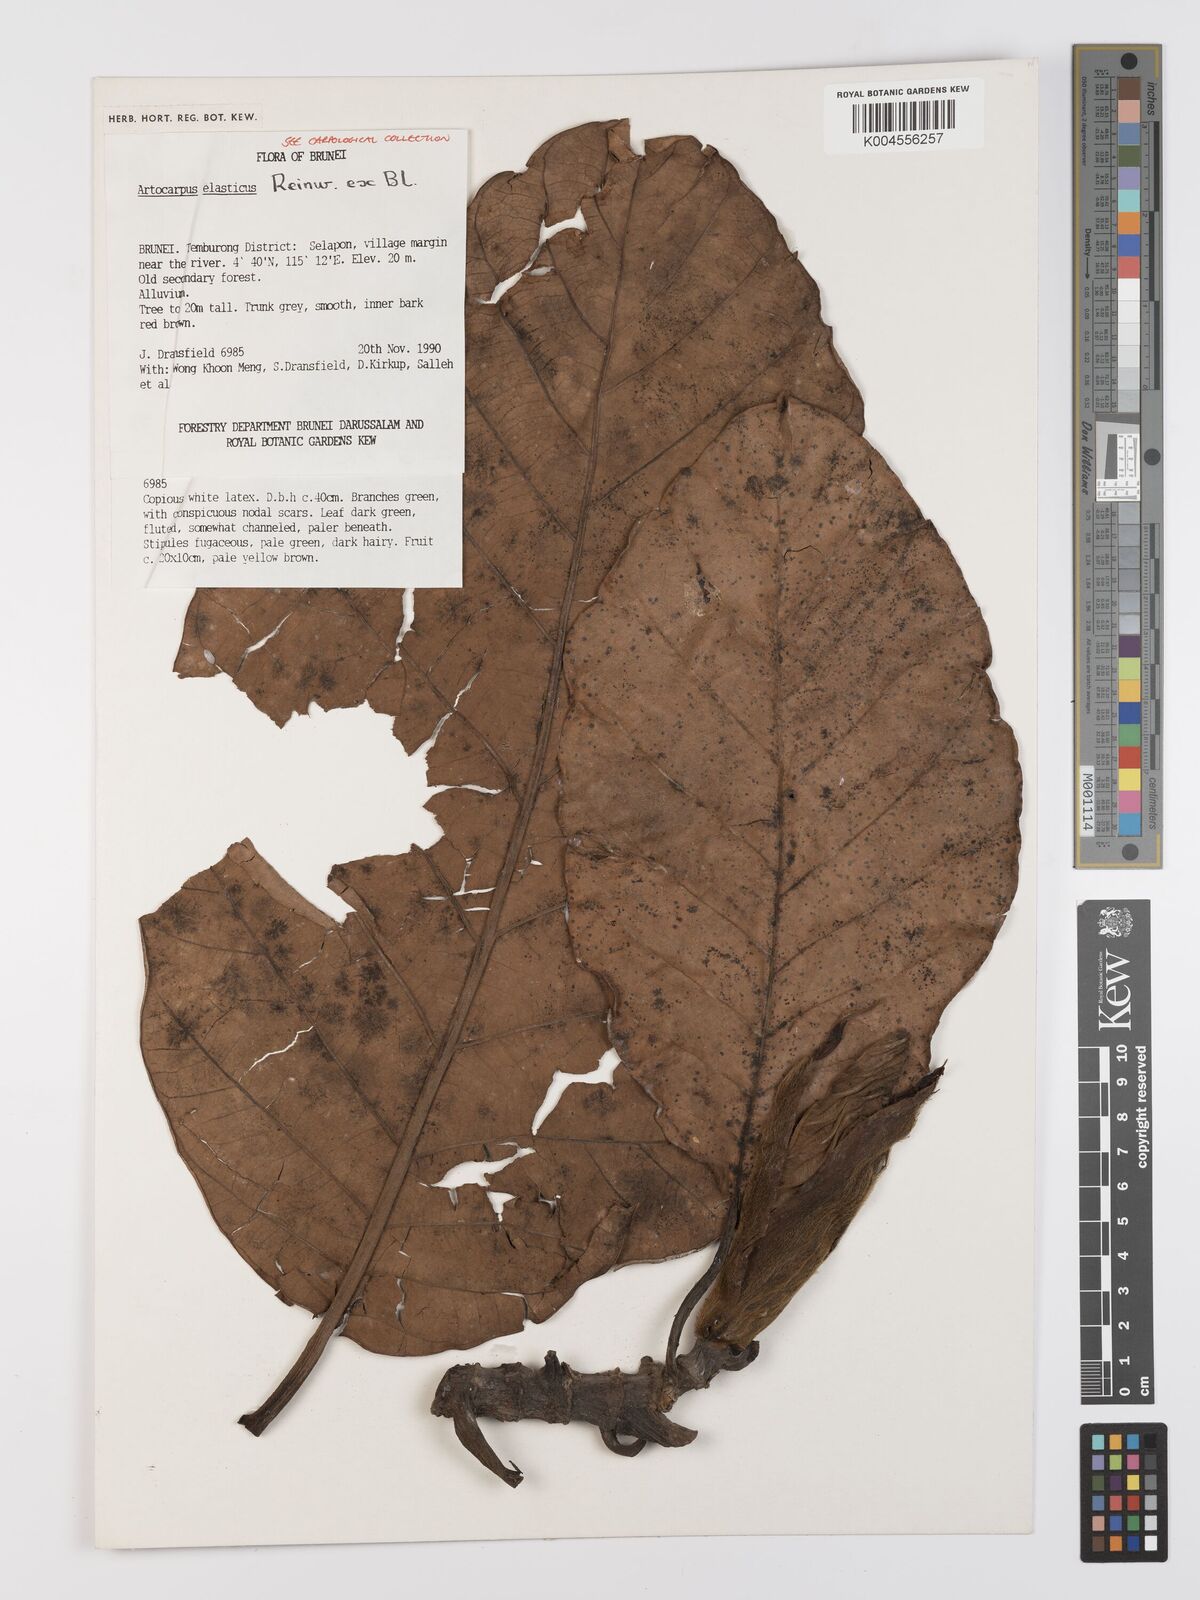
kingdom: Plantae
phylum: Tracheophyta
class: Magnoliopsida
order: Rosales
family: Moraceae
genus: Artocarpus
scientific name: Artocarpus elasticus
